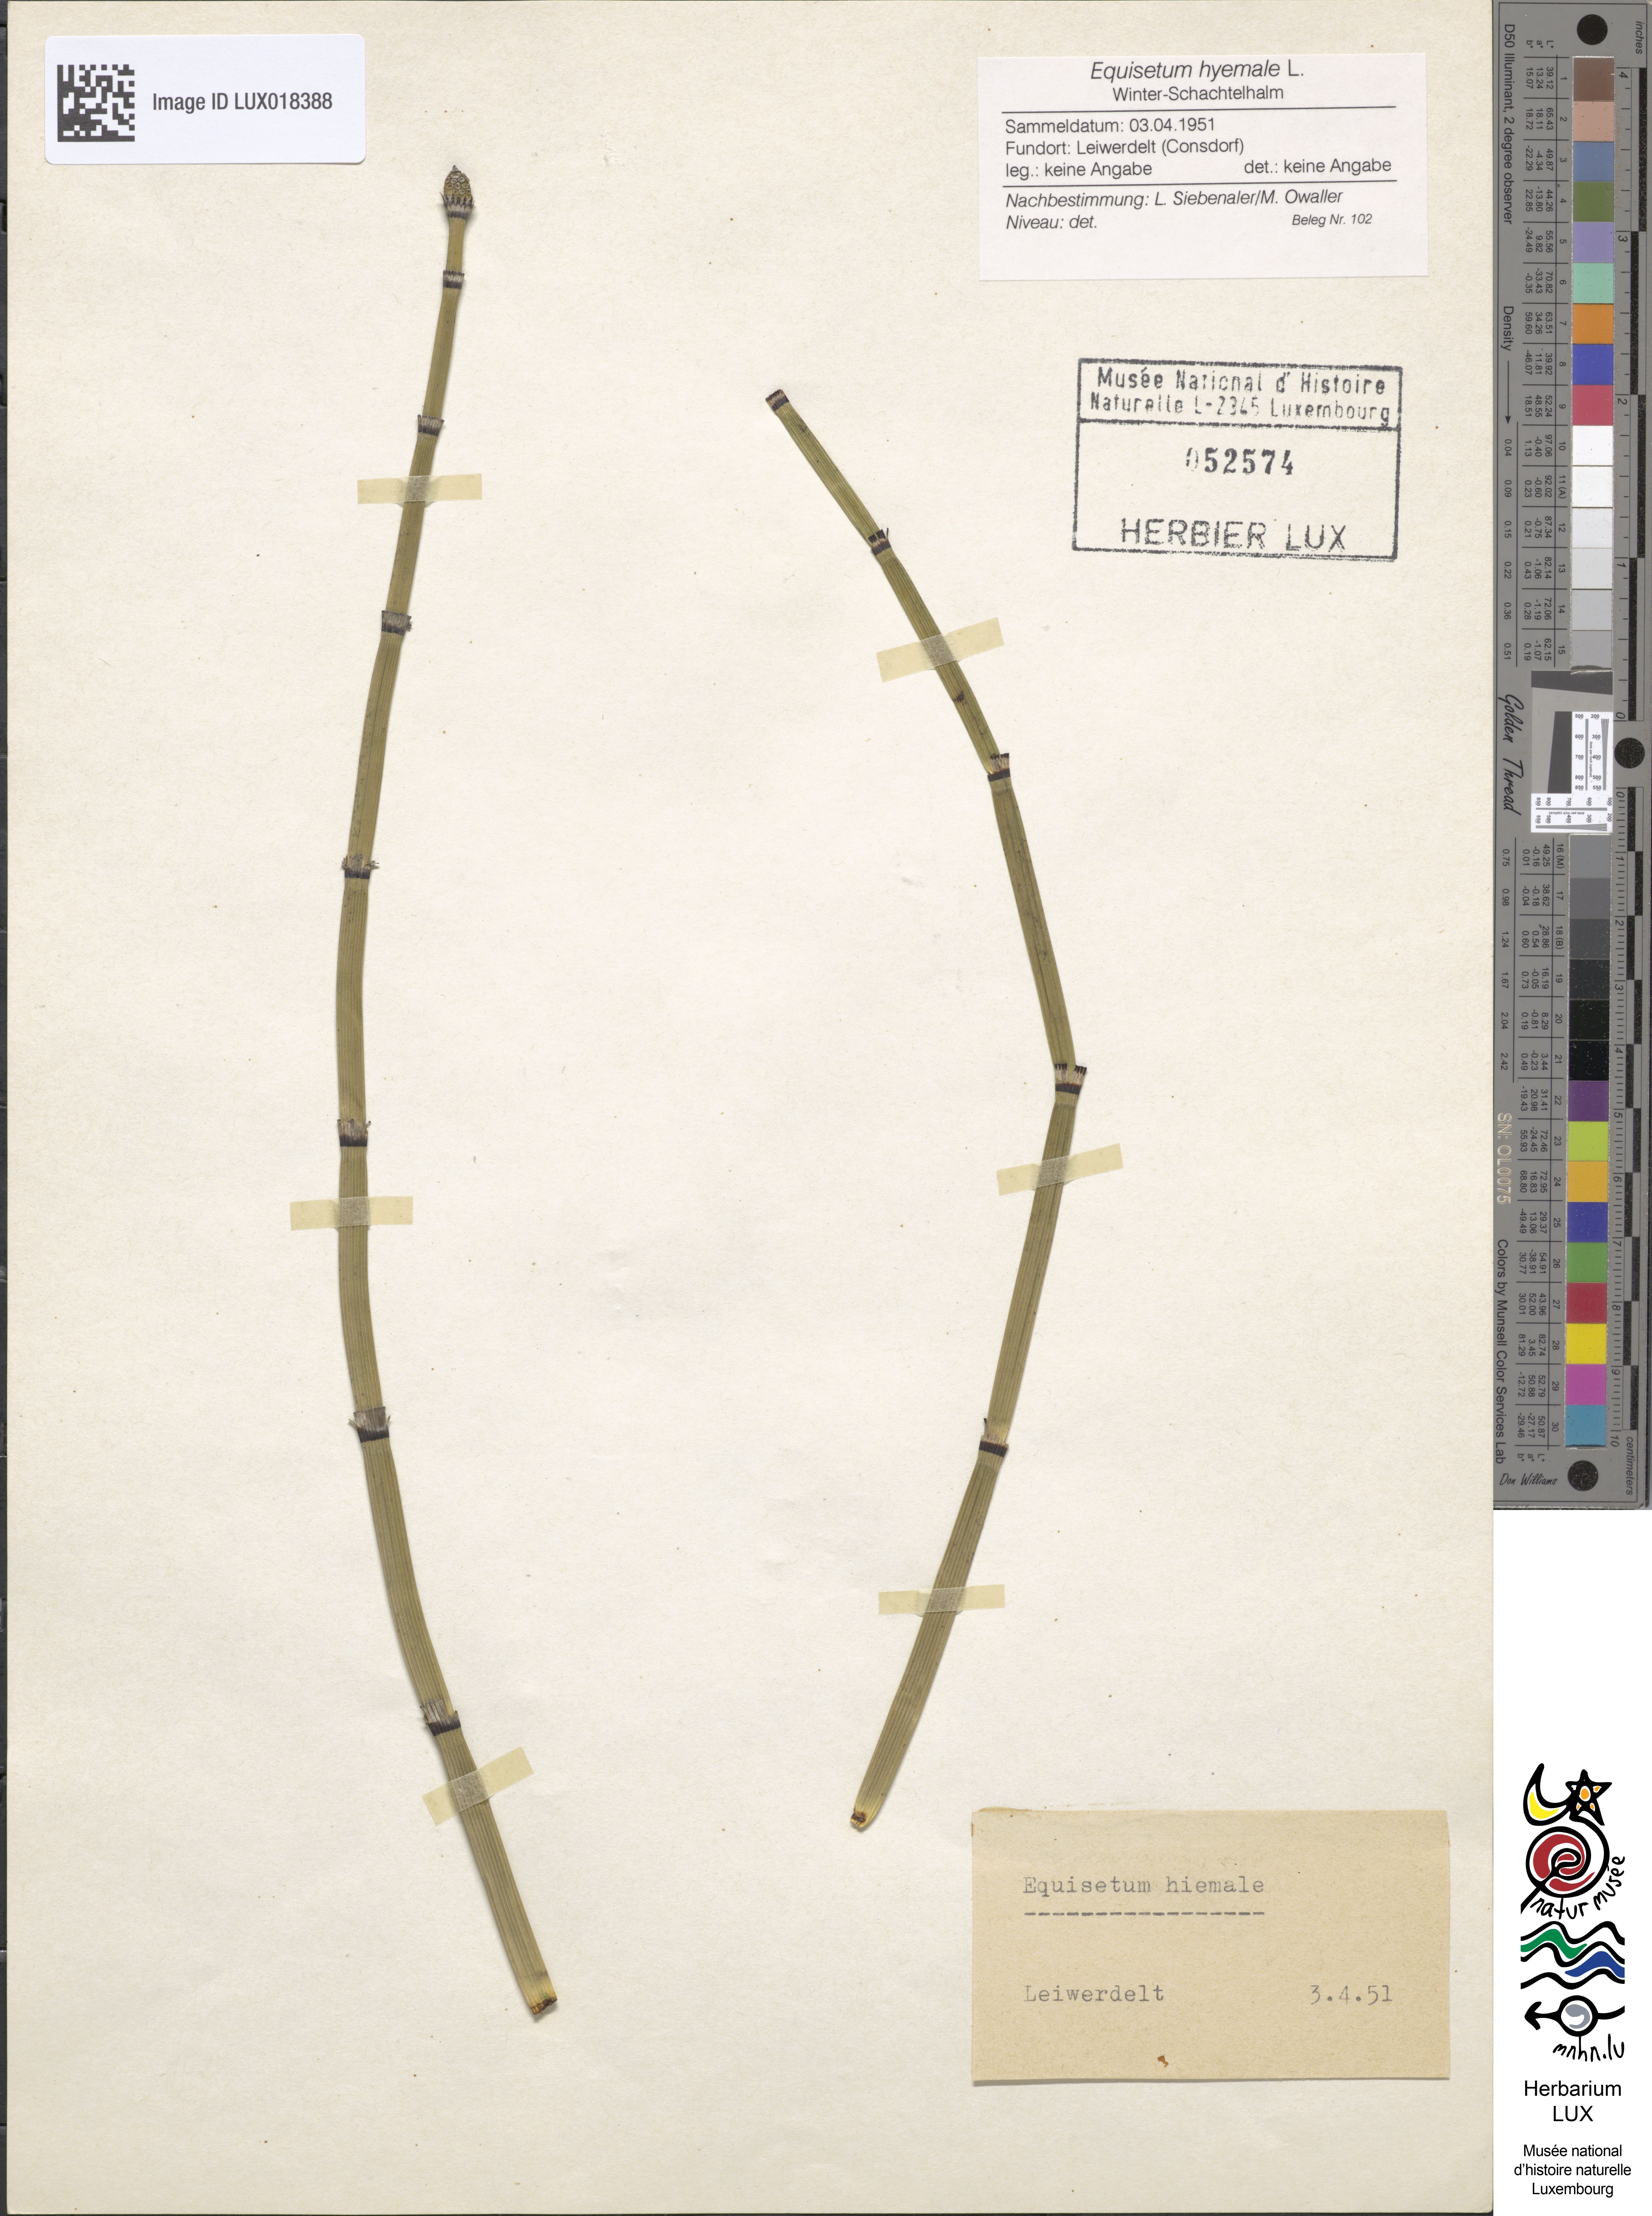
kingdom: Plantae
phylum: Tracheophyta
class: Polypodiopsida
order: Equisetales
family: Equisetaceae
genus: Equisetum
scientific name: Equisetum hyemale
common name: Rough horsetail
